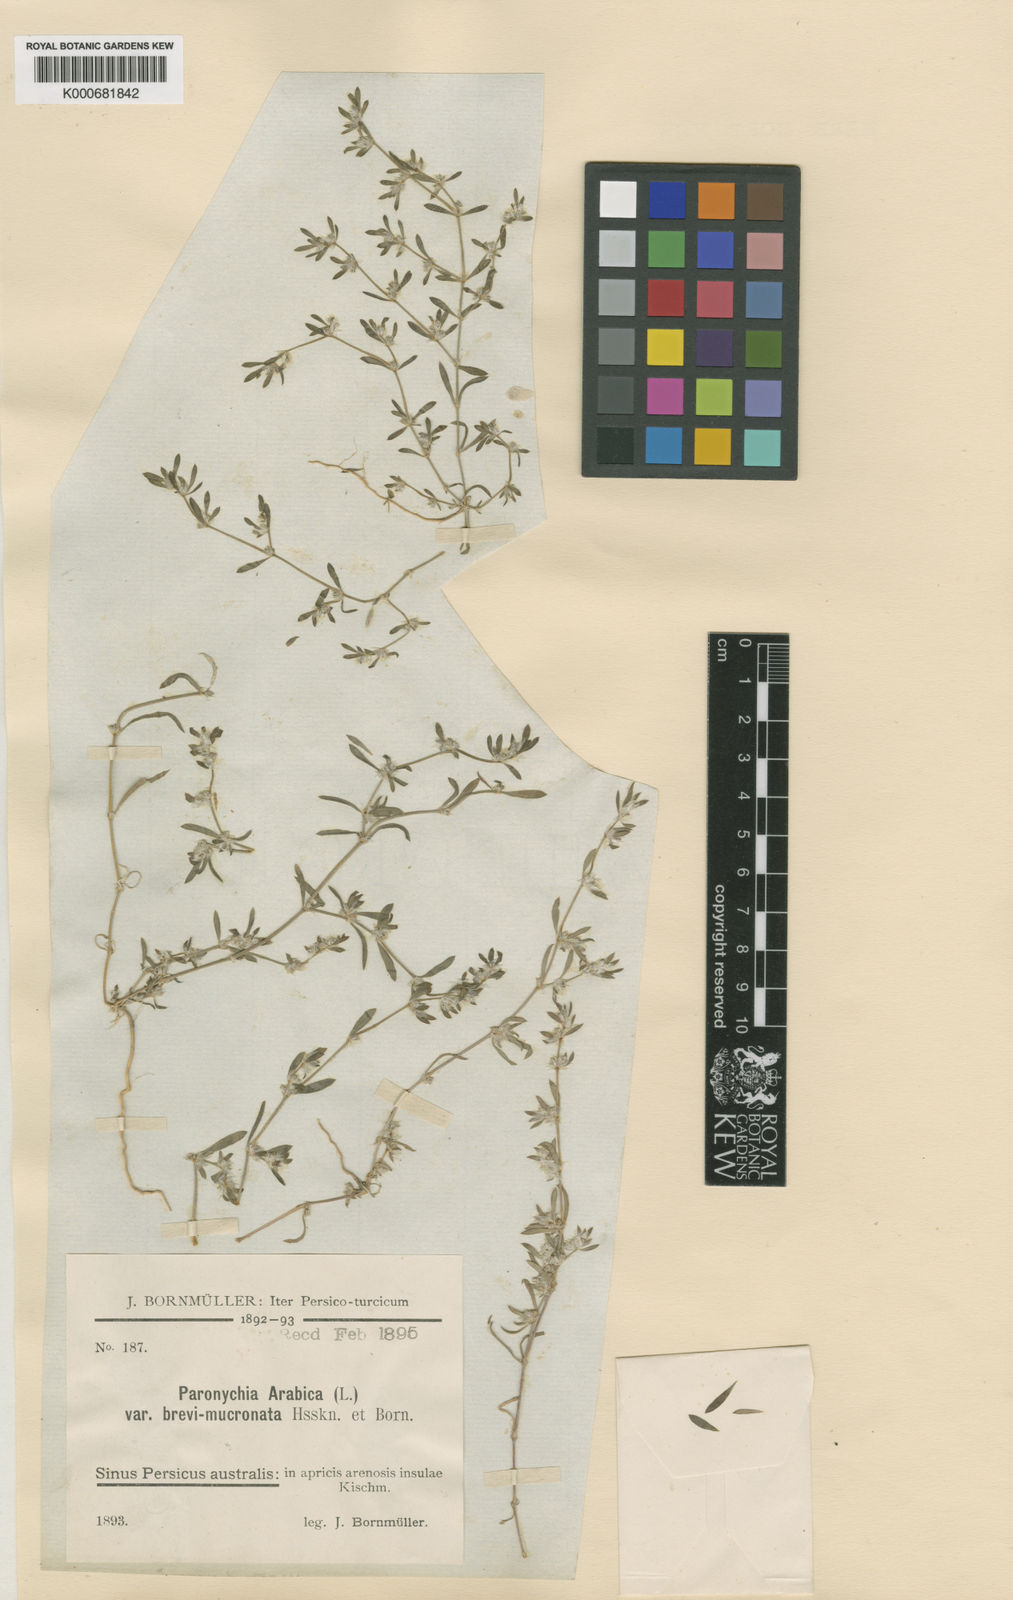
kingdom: Plantae
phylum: Tracheophyta
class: Magnoliopsida
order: Caryophyllales
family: Caryophyllaceae
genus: Paronychia
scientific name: Paronychia arabica
